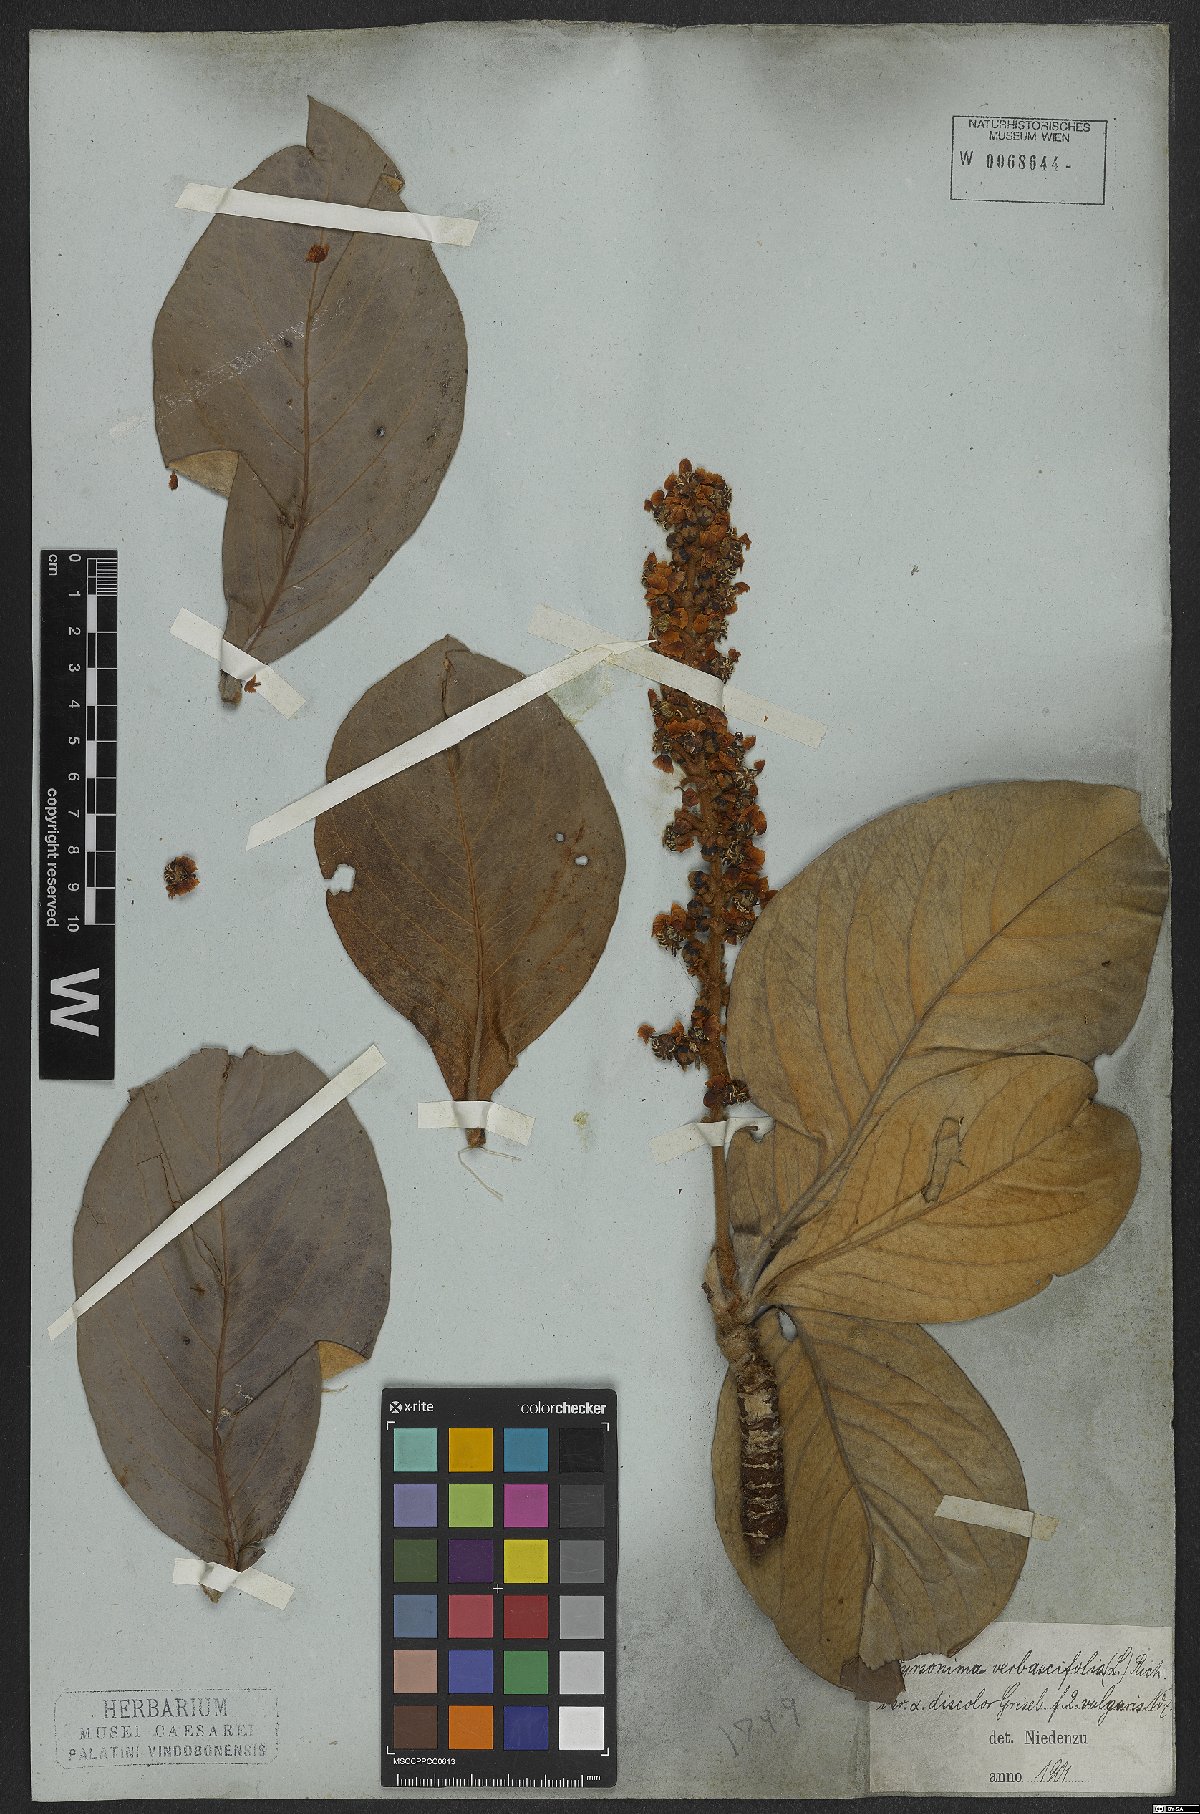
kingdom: Plantae
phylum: Tracheophyta
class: Magnoliopsida
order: Malpighiales
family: Malpighiaceae
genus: Byrsonima
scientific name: Byrsonima verbascifolia
